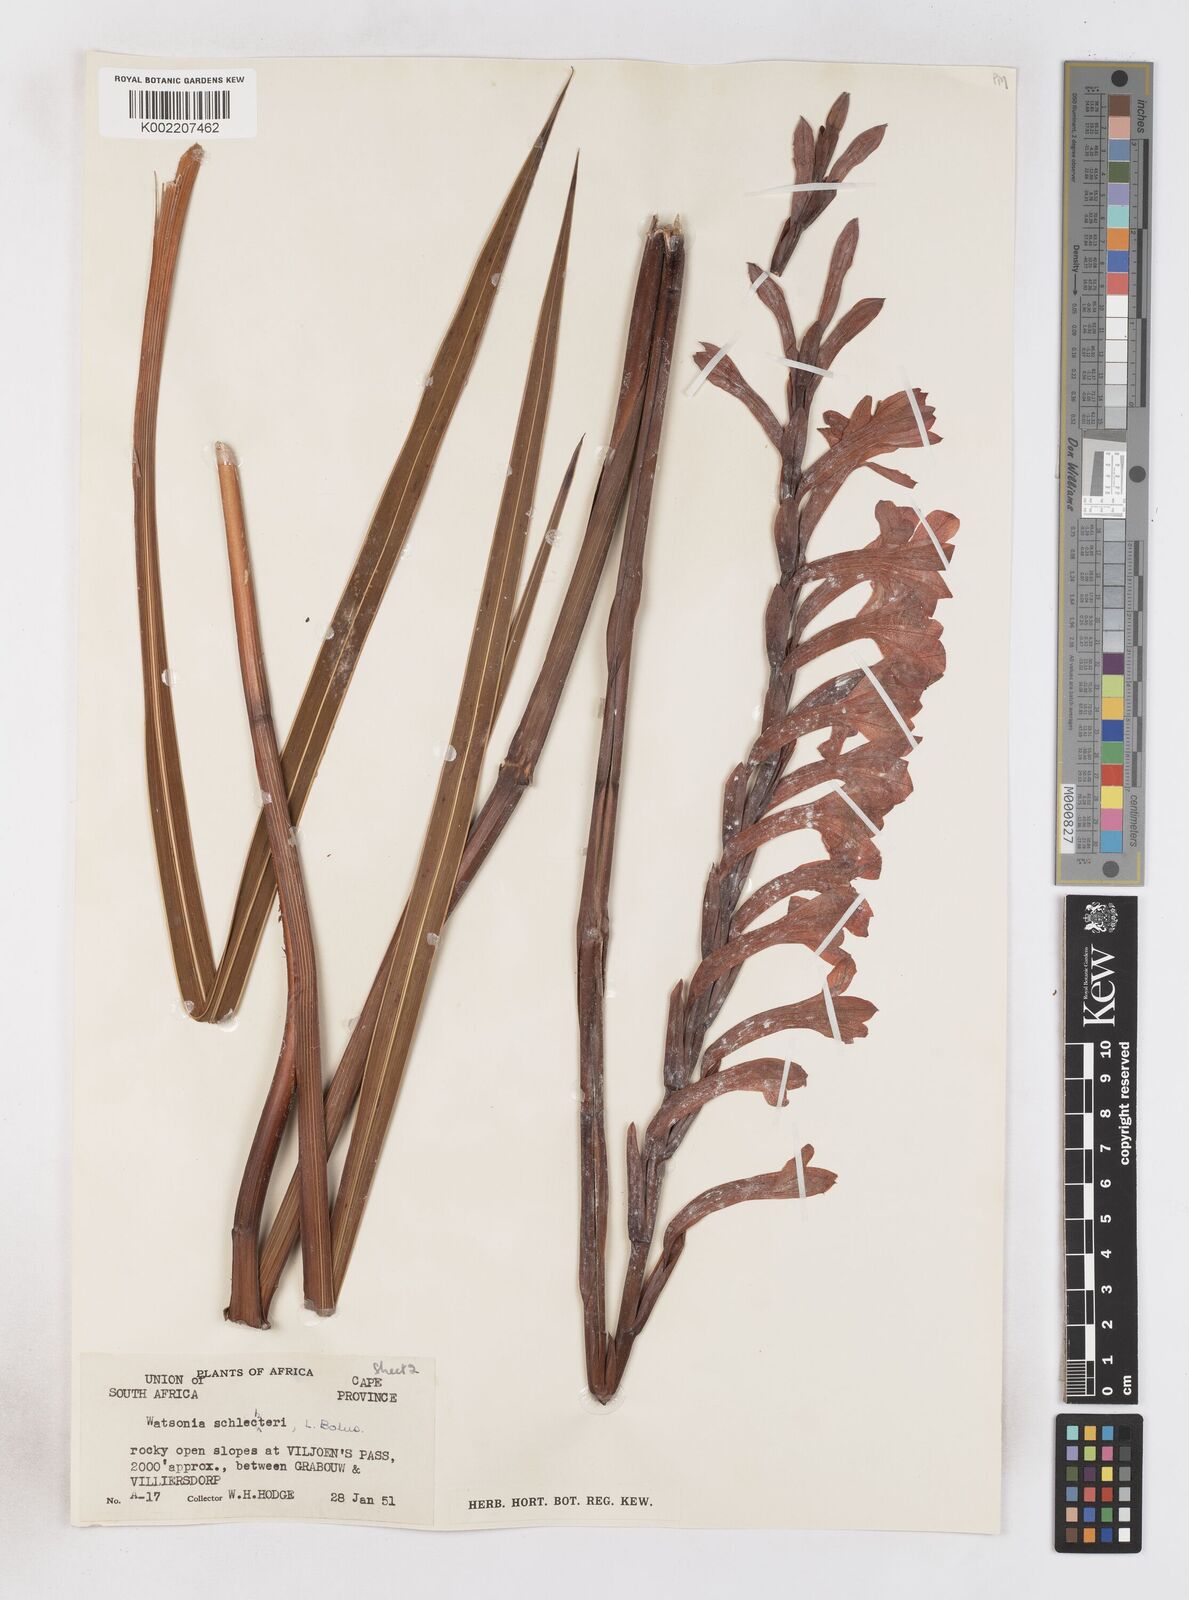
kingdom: Plantae
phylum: Tracheophyta
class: Liliopsida
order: Asparagales
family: Iridaceae
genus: Watsonia
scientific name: Watsonia schlechteri
